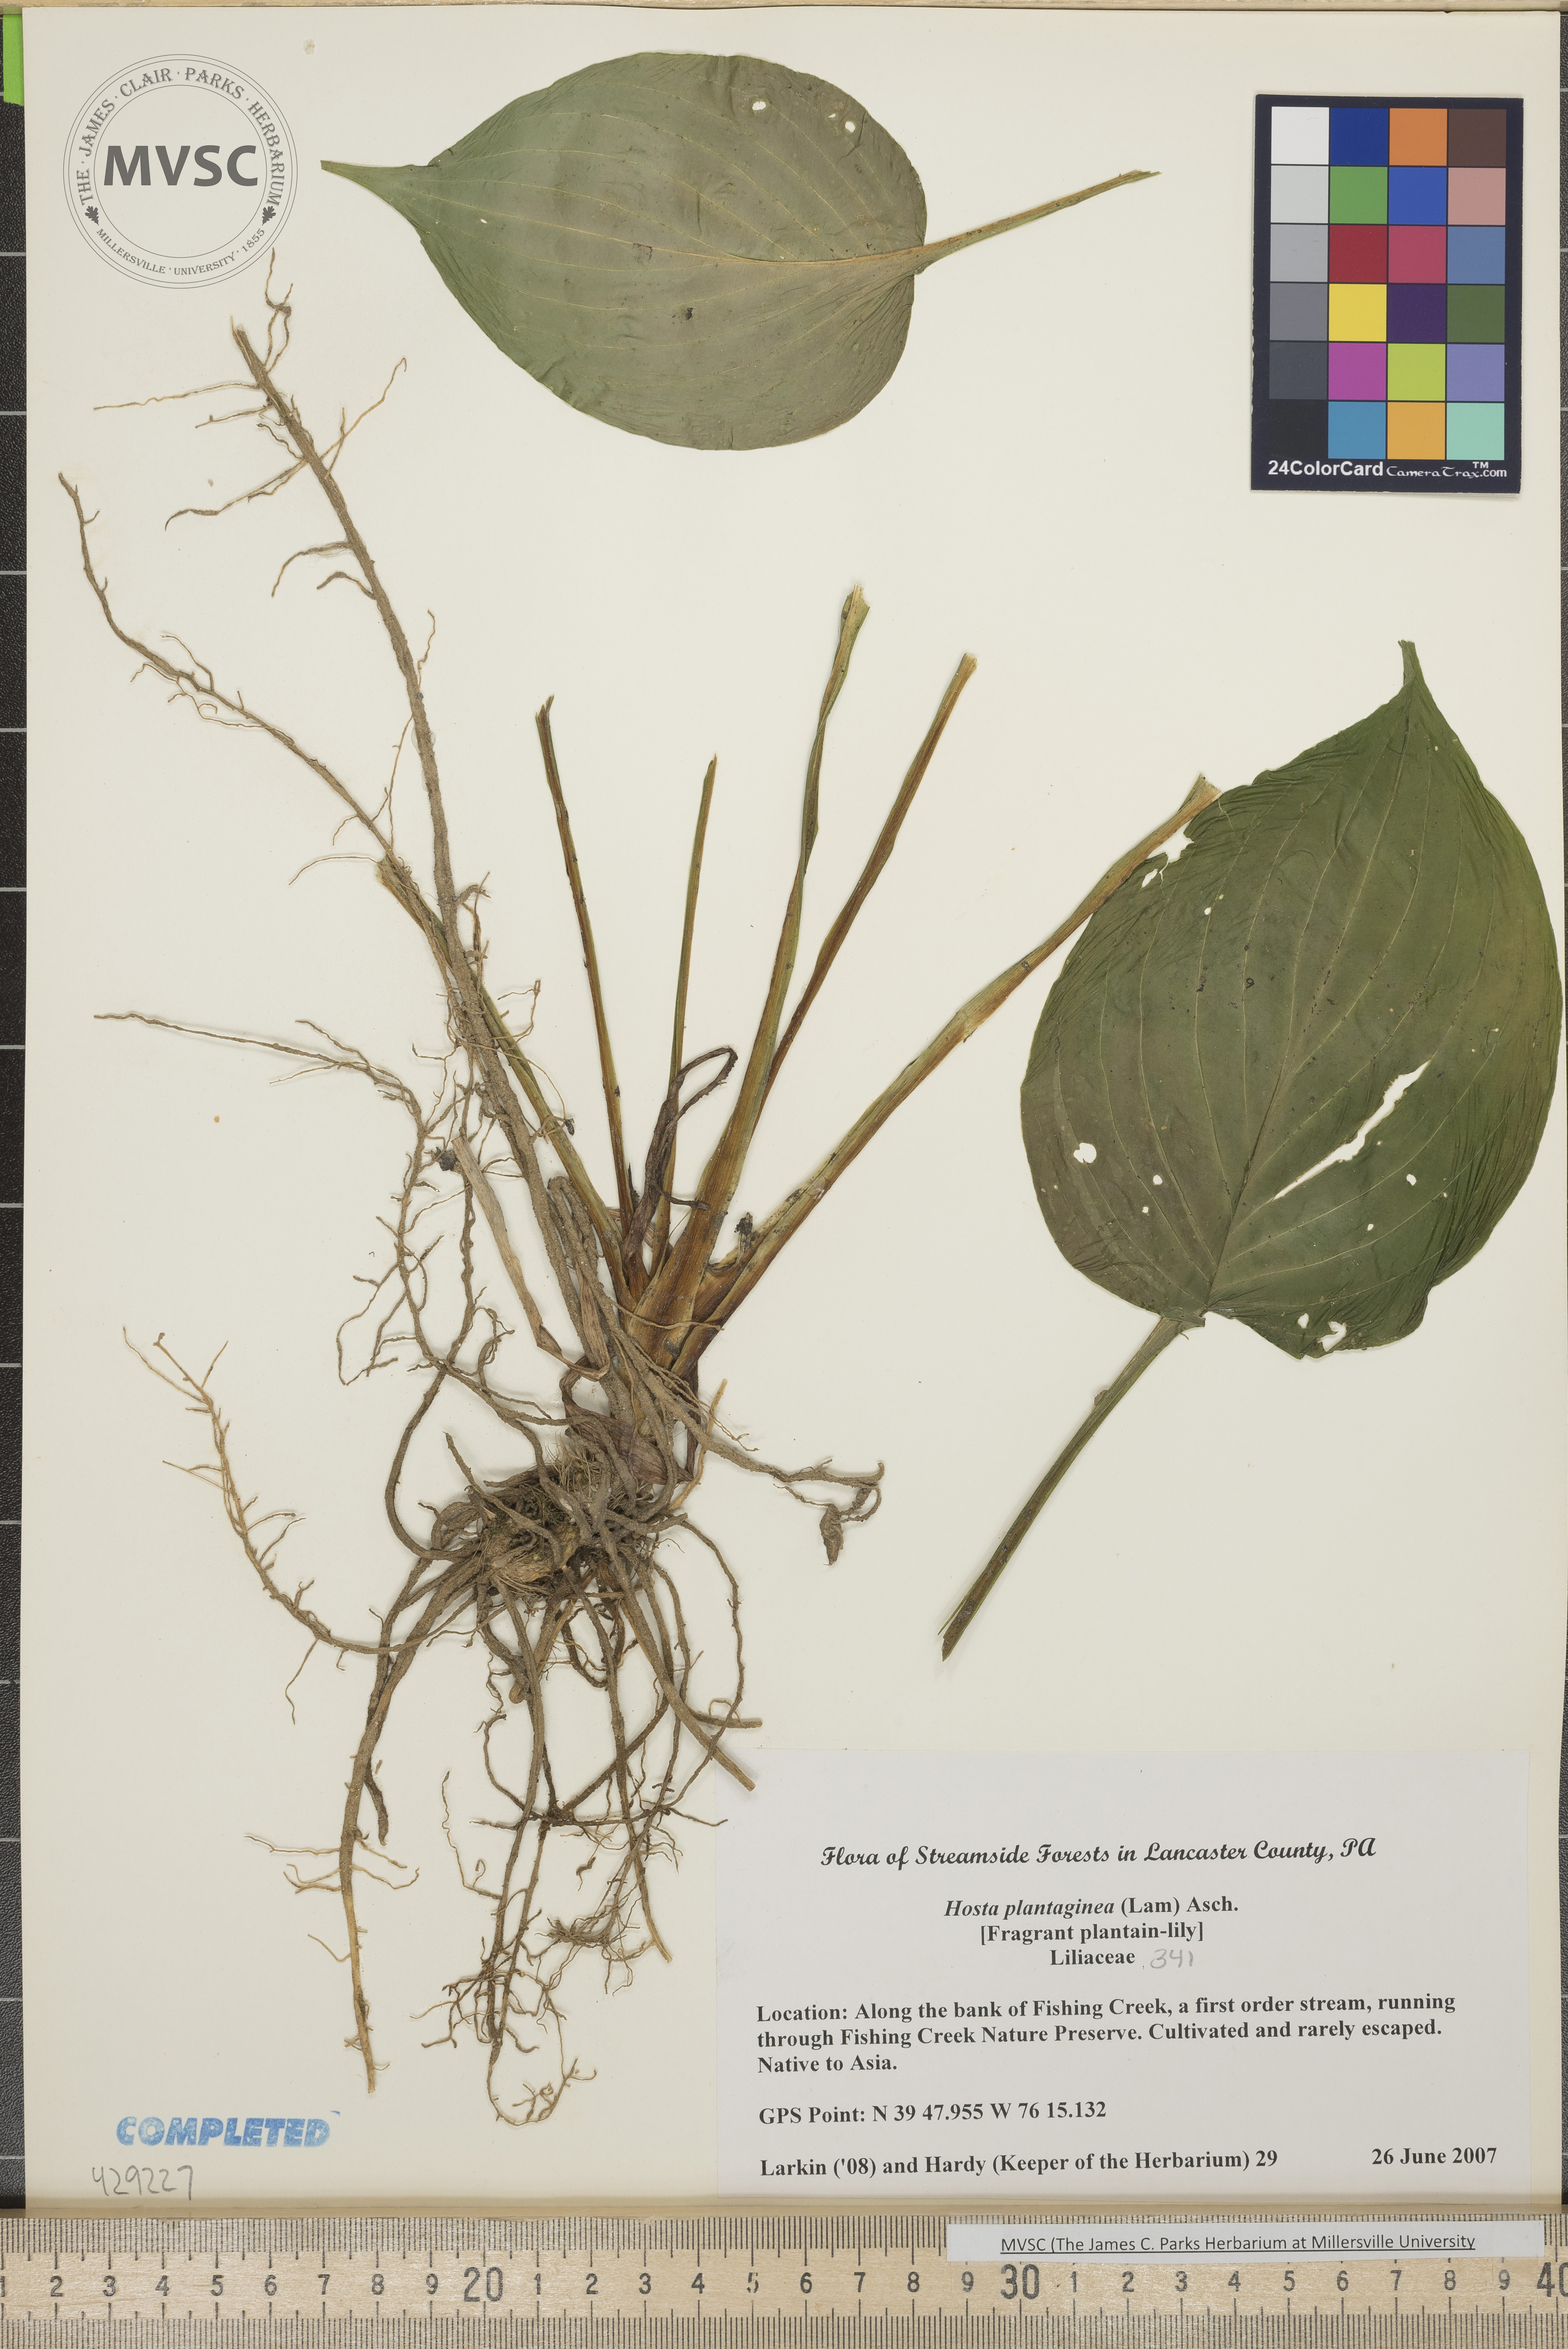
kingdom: Plantae
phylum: Tracheophyta
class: Liliopsida
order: Asparagales
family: Asparagaceae
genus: Hosta
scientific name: Hosta plantaginea
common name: Fragrant plantain lily
